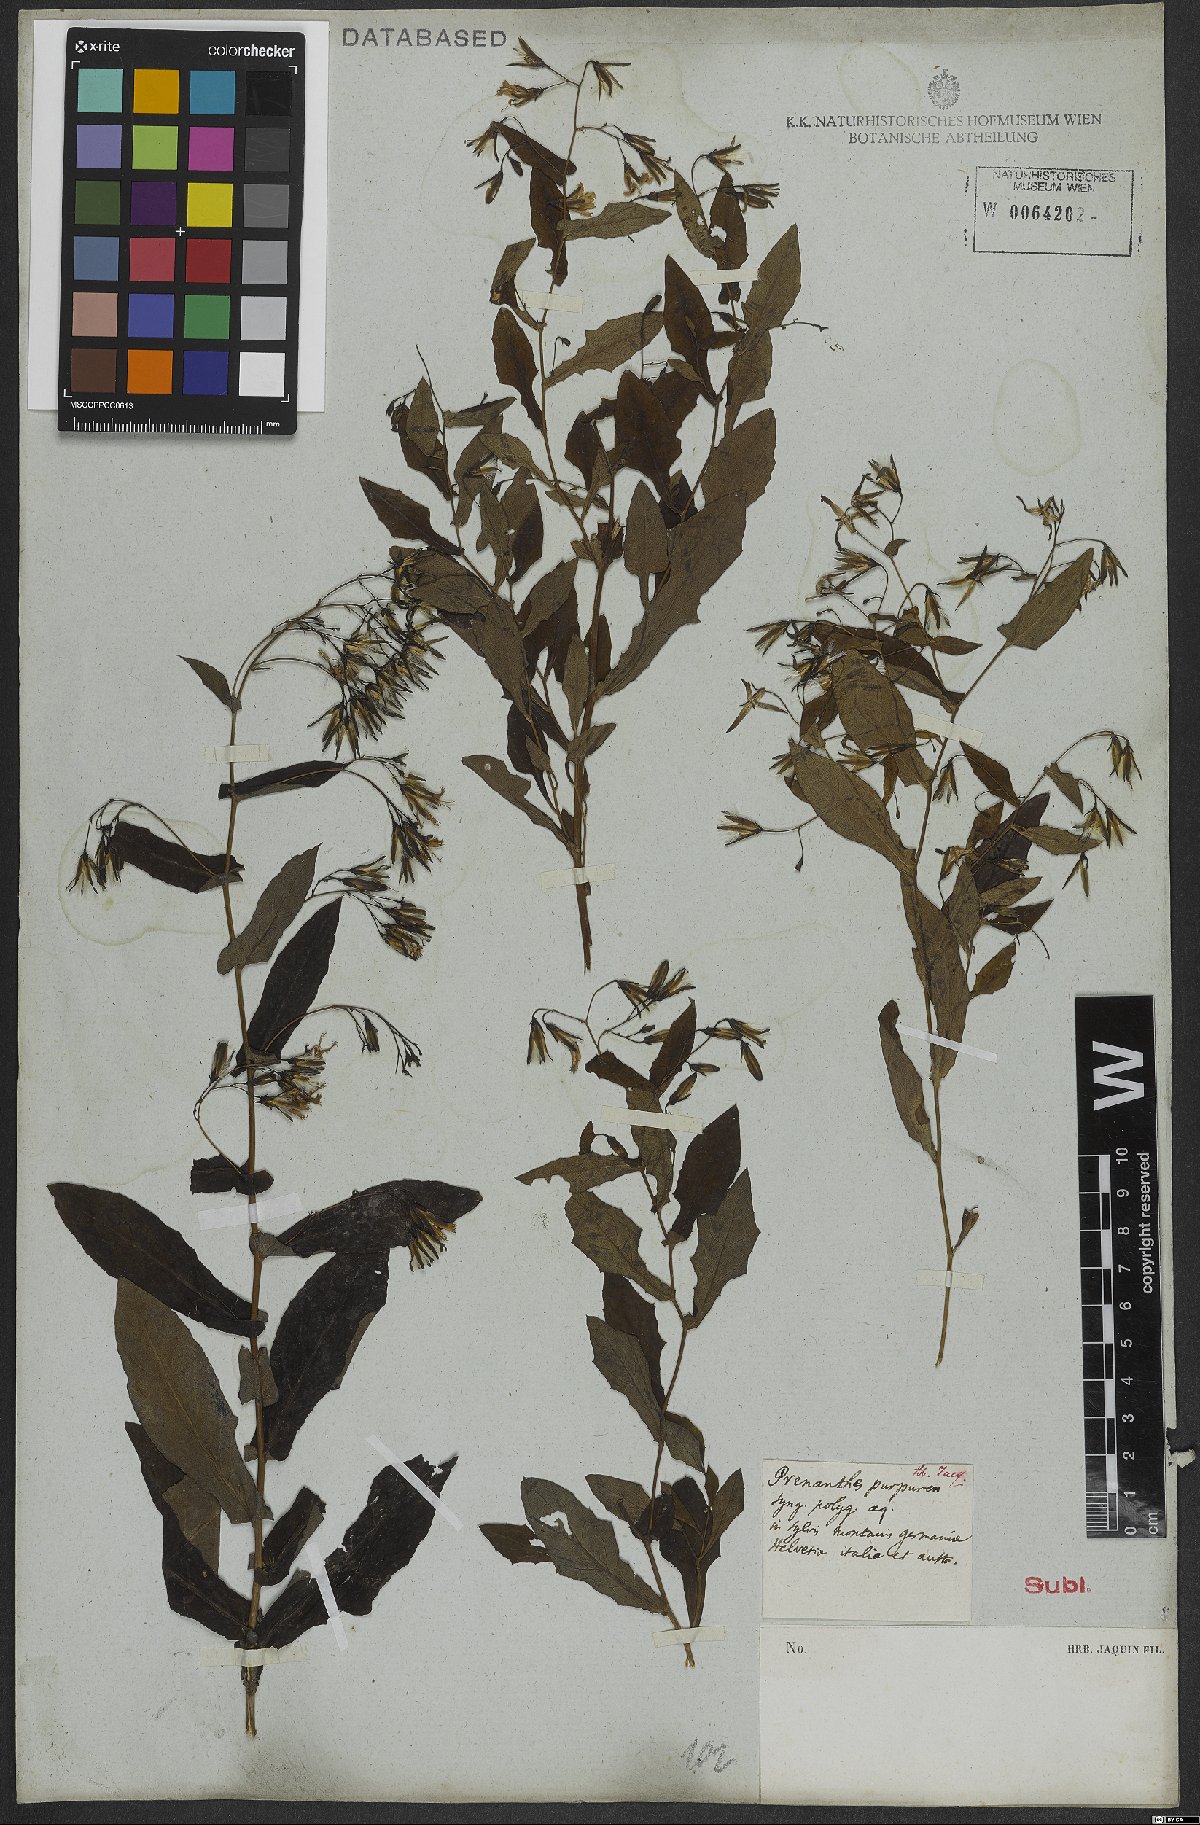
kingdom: Plantae
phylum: Tracheophyta
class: Magnoliopsida
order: Asterales
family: Asteraceae
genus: Prenanthes
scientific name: Prenanthes purpurea
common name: Purple lettuce
